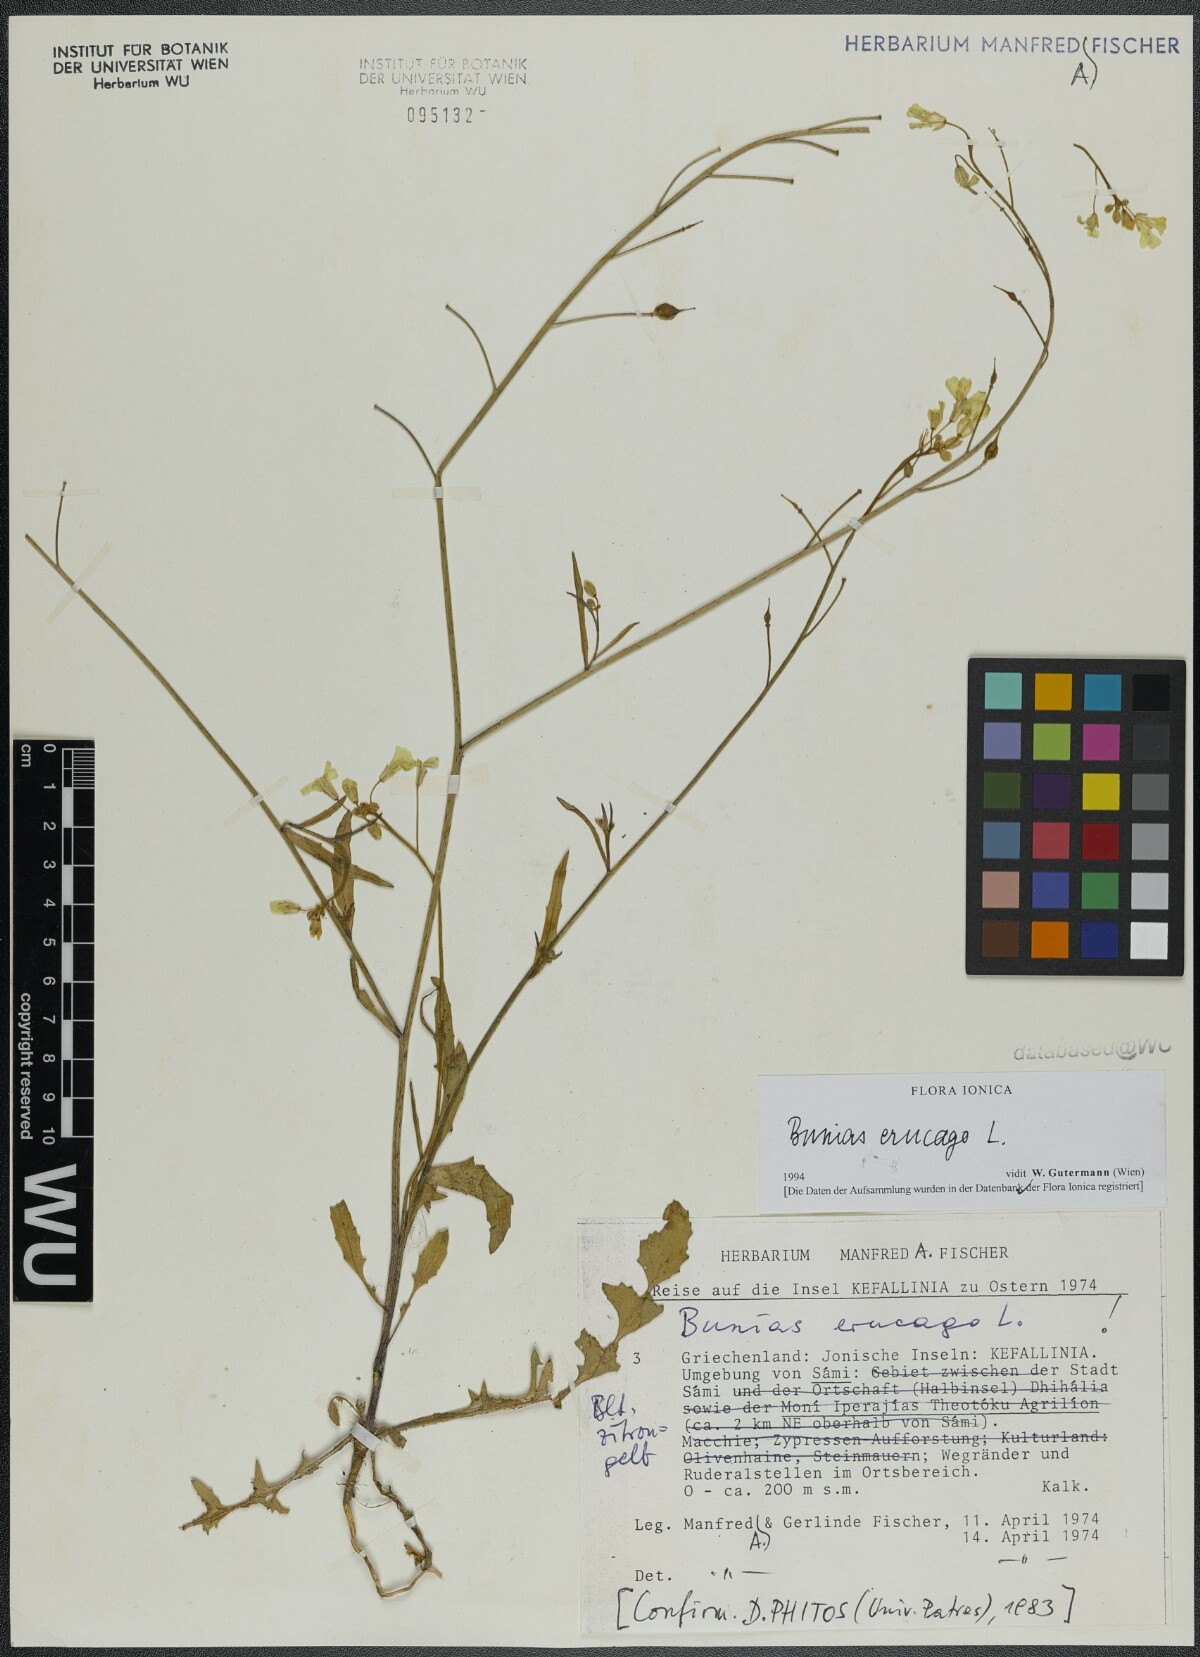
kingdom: Plantae
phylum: Tracheophyta
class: Magnoliopsida
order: Brassicales
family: Brassicaceae
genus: Bunias
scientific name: Bunias erucago
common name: Southern warty-cabbage
